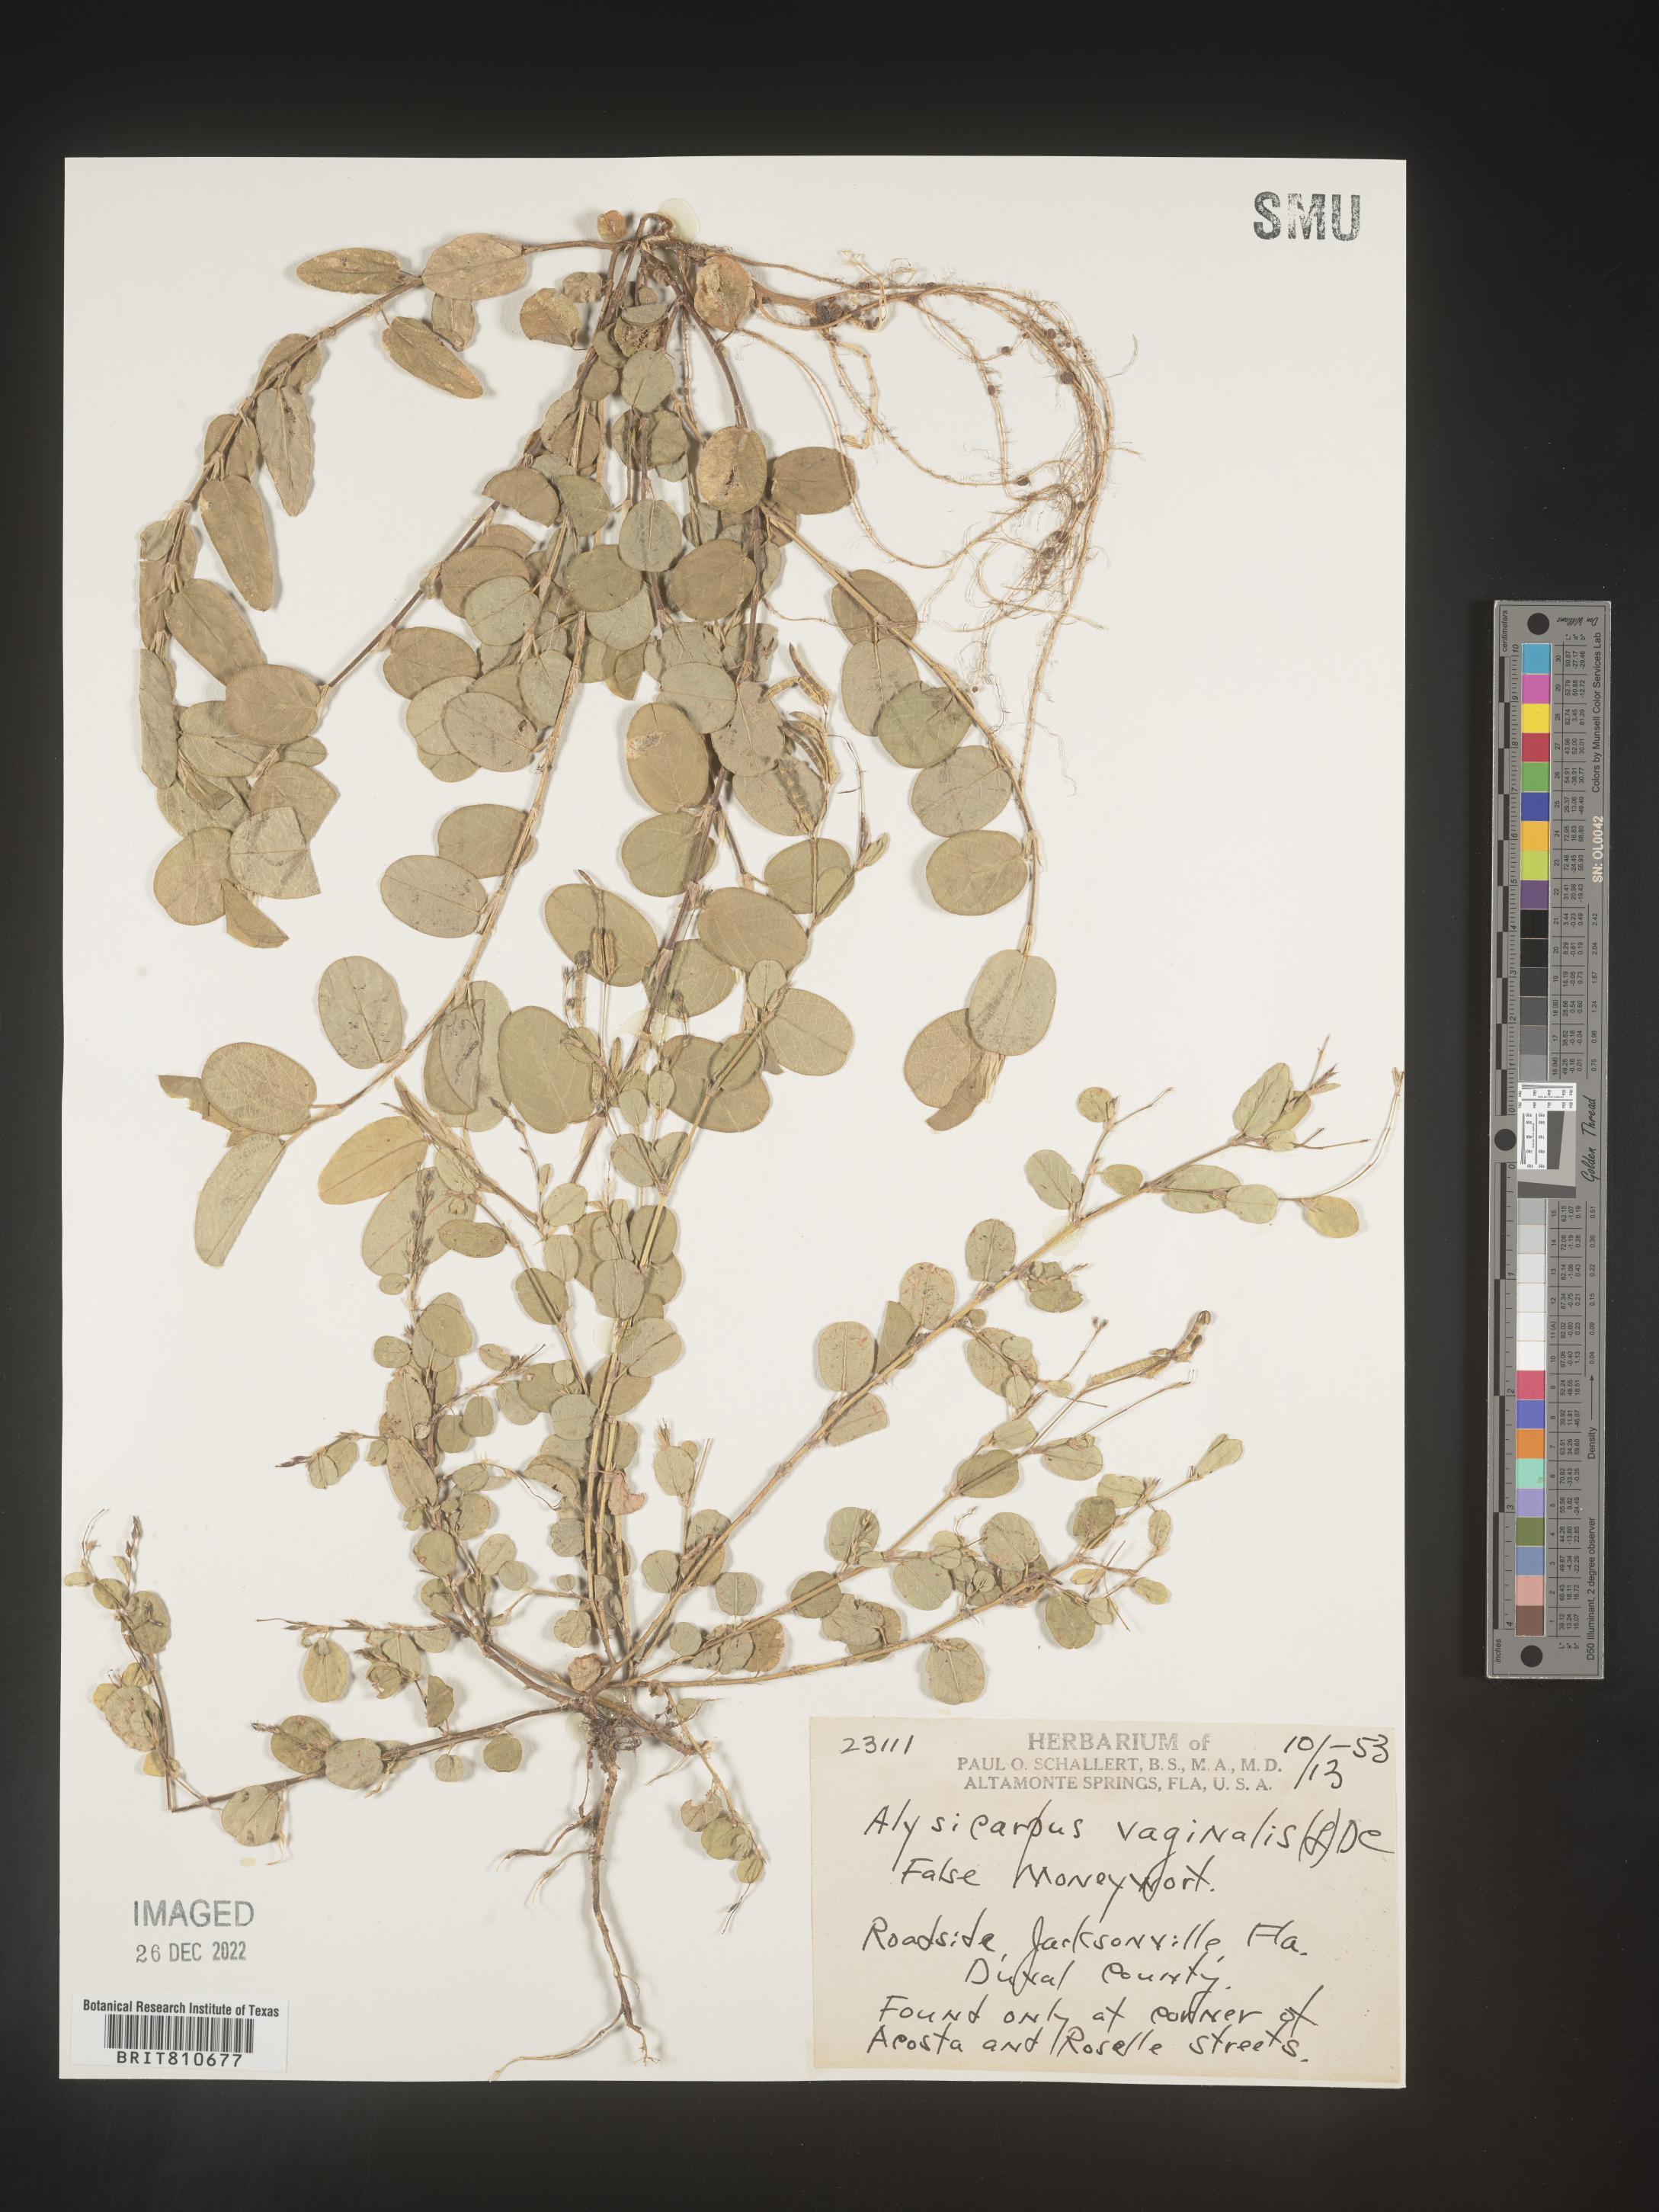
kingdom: Plantae
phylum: Tracheophyta
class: Magnoliopsida
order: Fabales
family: Fabaceae
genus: Alysicarpus
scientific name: Alysicarpus
